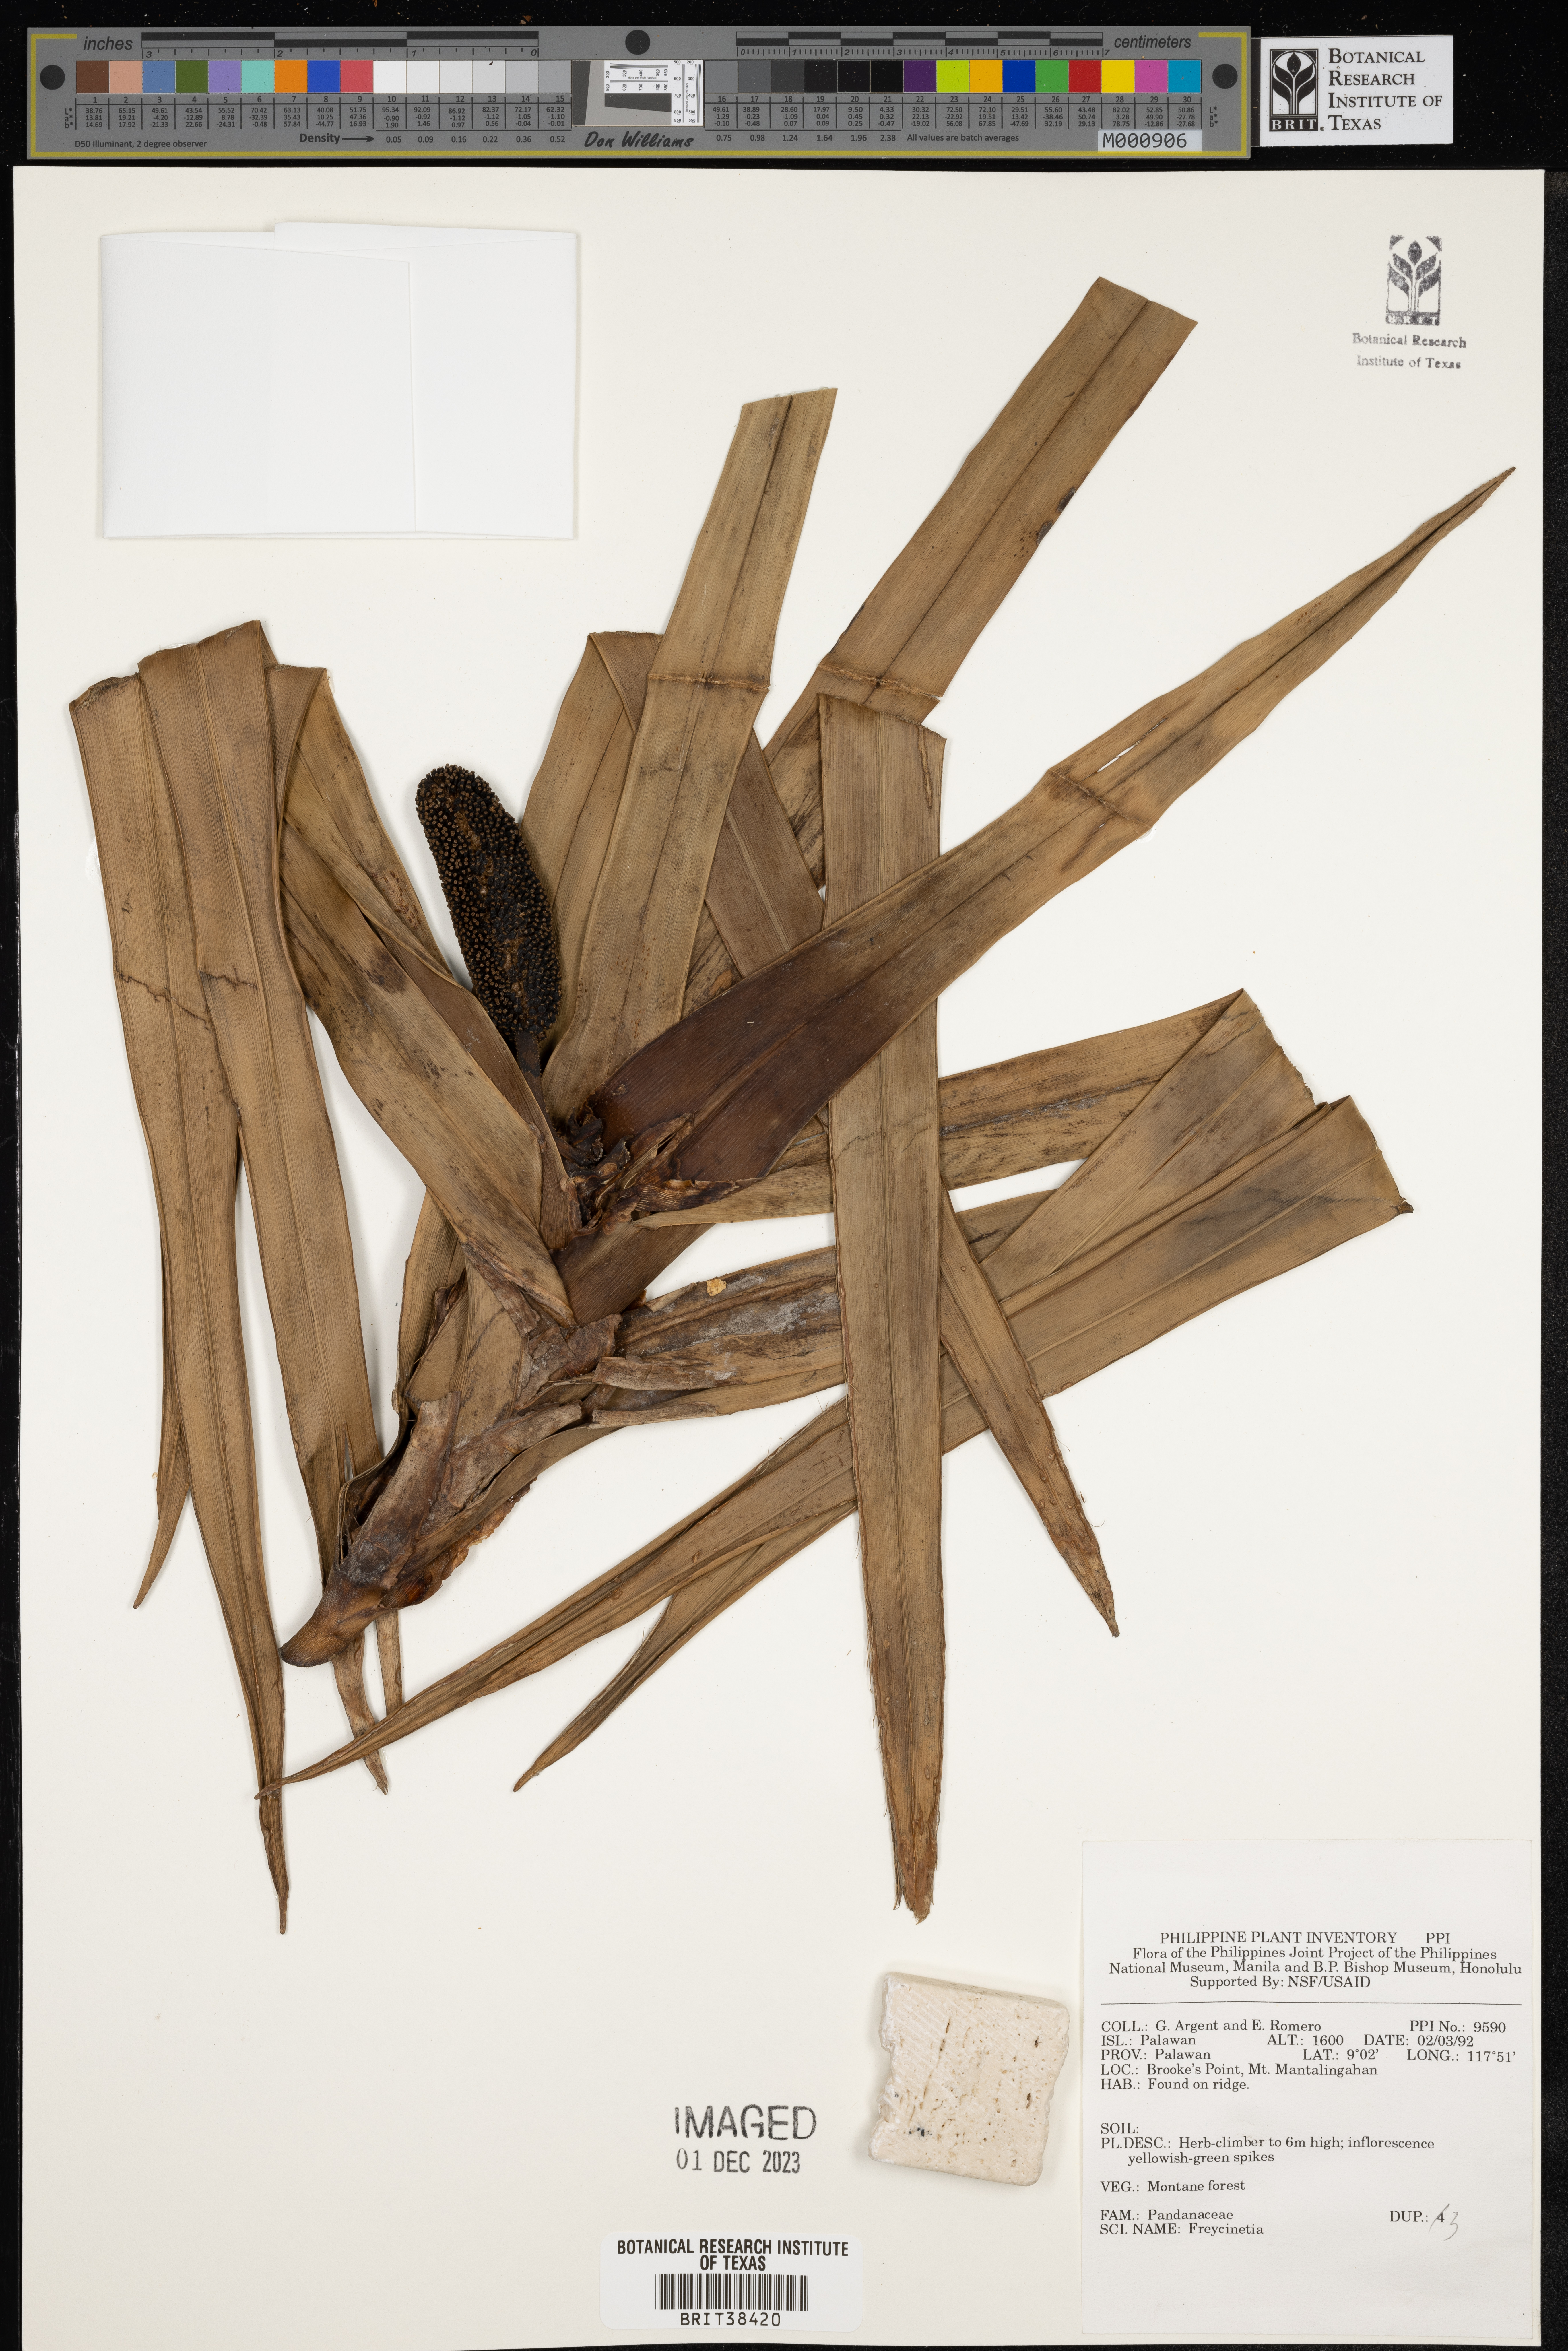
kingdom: Plantae
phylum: Tracheophyta
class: Liliopsida
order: Pandanales
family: Pandanaceae
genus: Freycinetia
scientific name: Freycinetia
